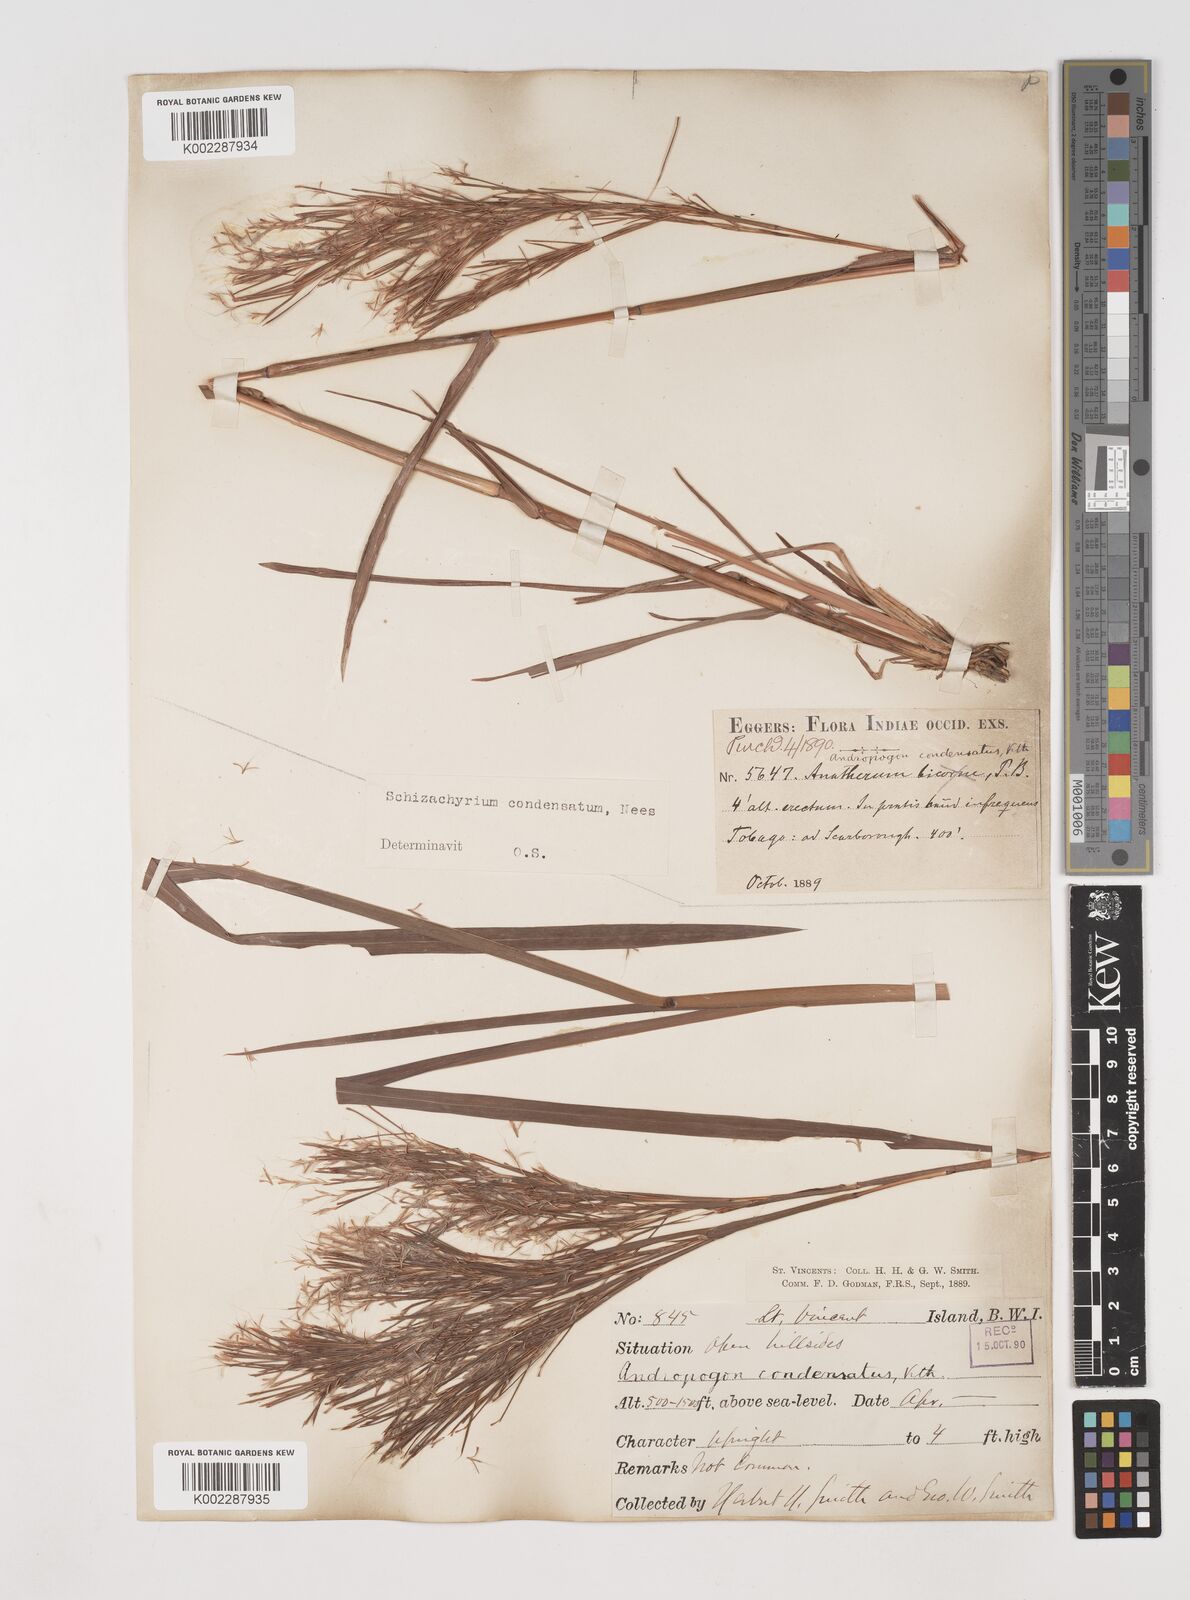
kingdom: Plantae
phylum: Tracheophyta
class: Liliopsida
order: Poales
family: Poaceae
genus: Schizachyrium
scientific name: Schizachyrium condensatum
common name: Bush beardgrass
